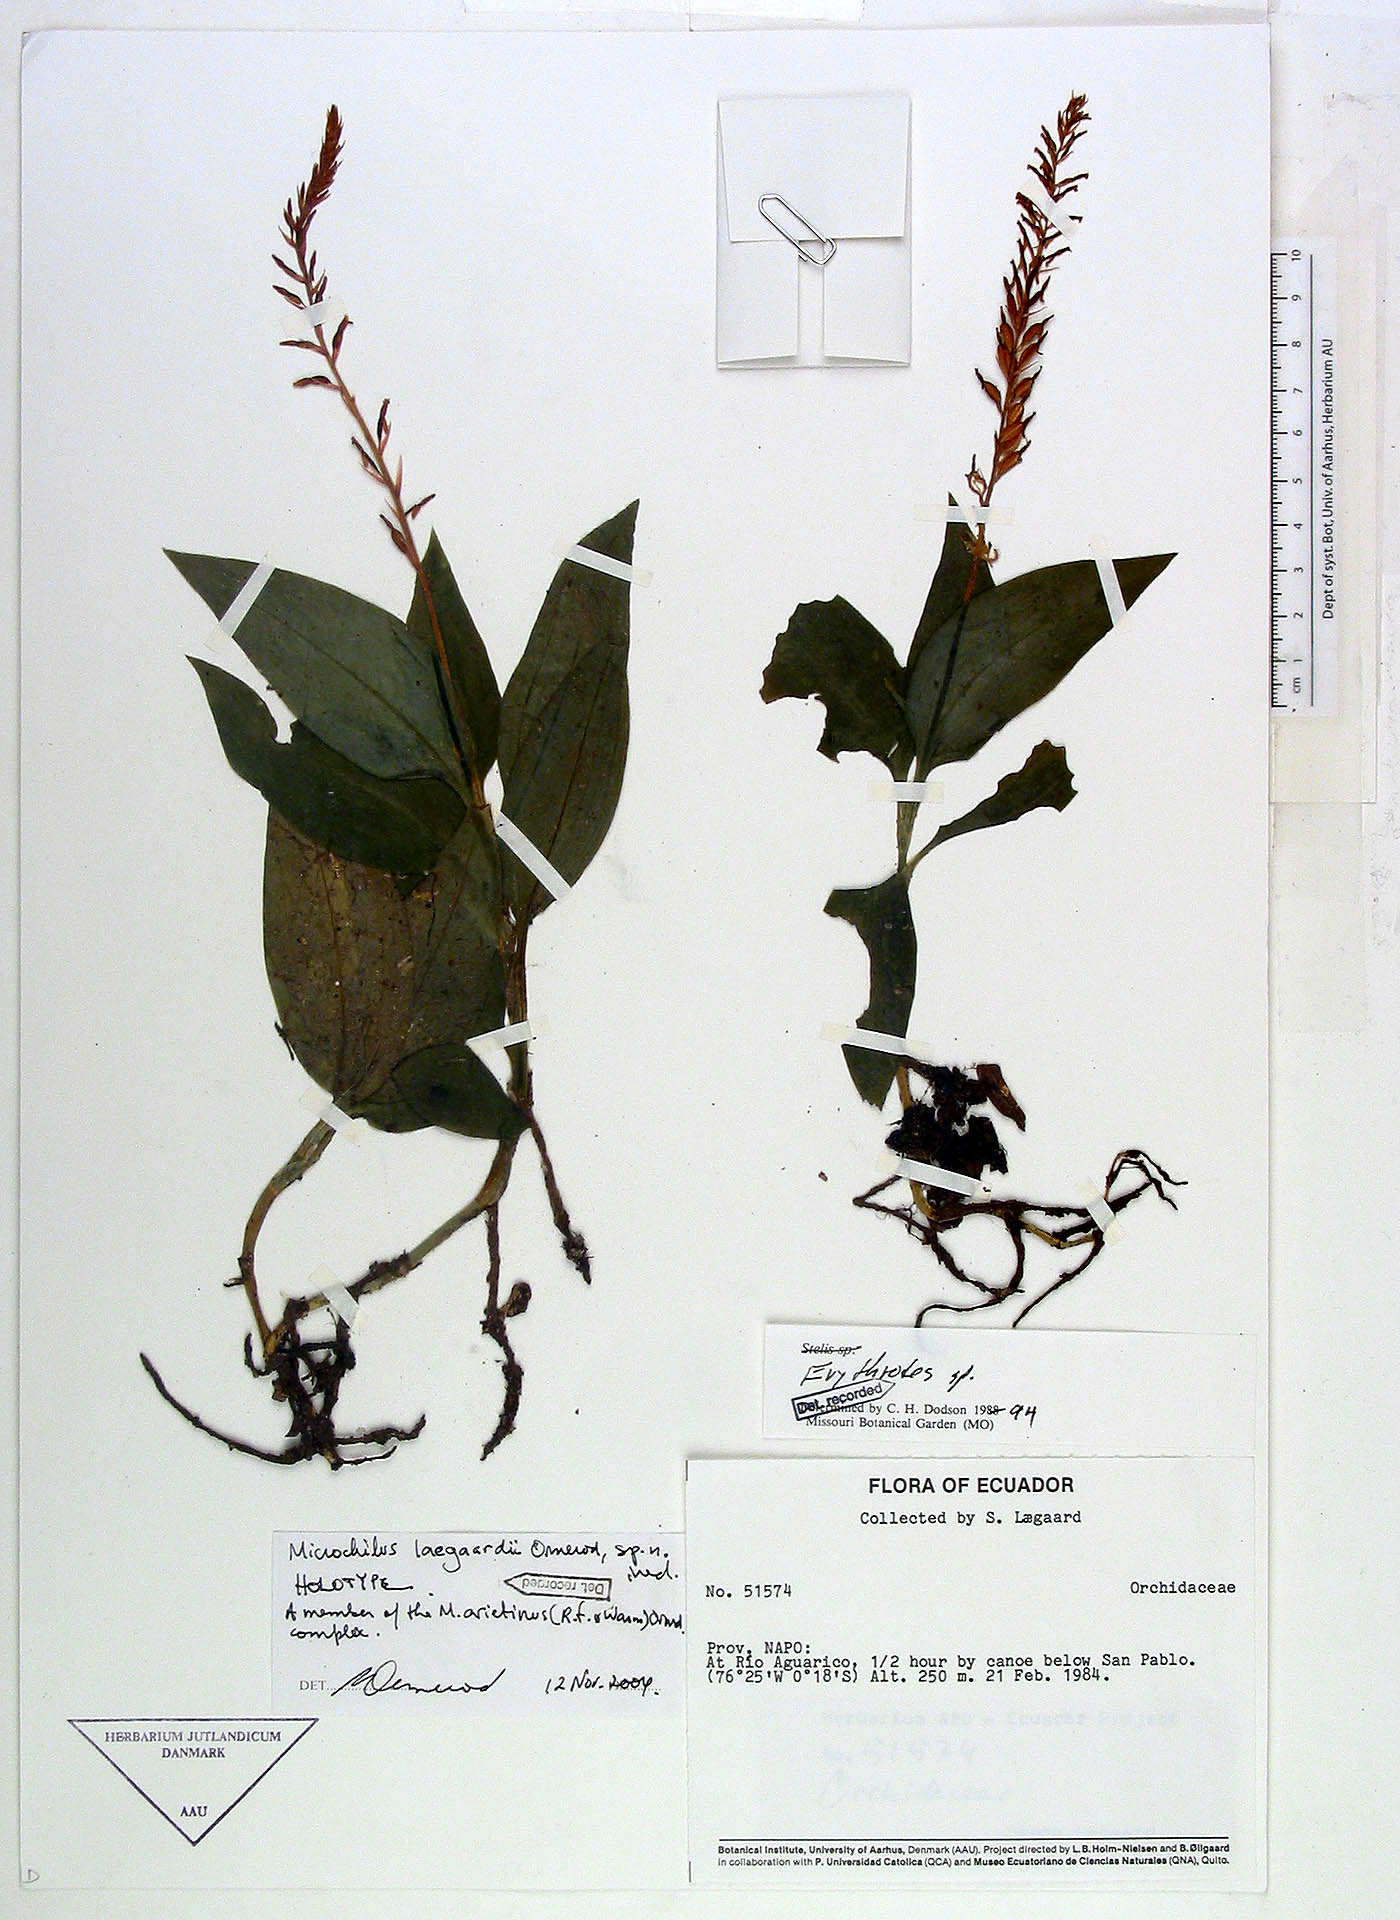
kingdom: Plantae
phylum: Tracheophyta
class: Liliopsida
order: Asparagales
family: Orchidaceae
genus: Microchilus
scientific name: Microchilus laegaardii
